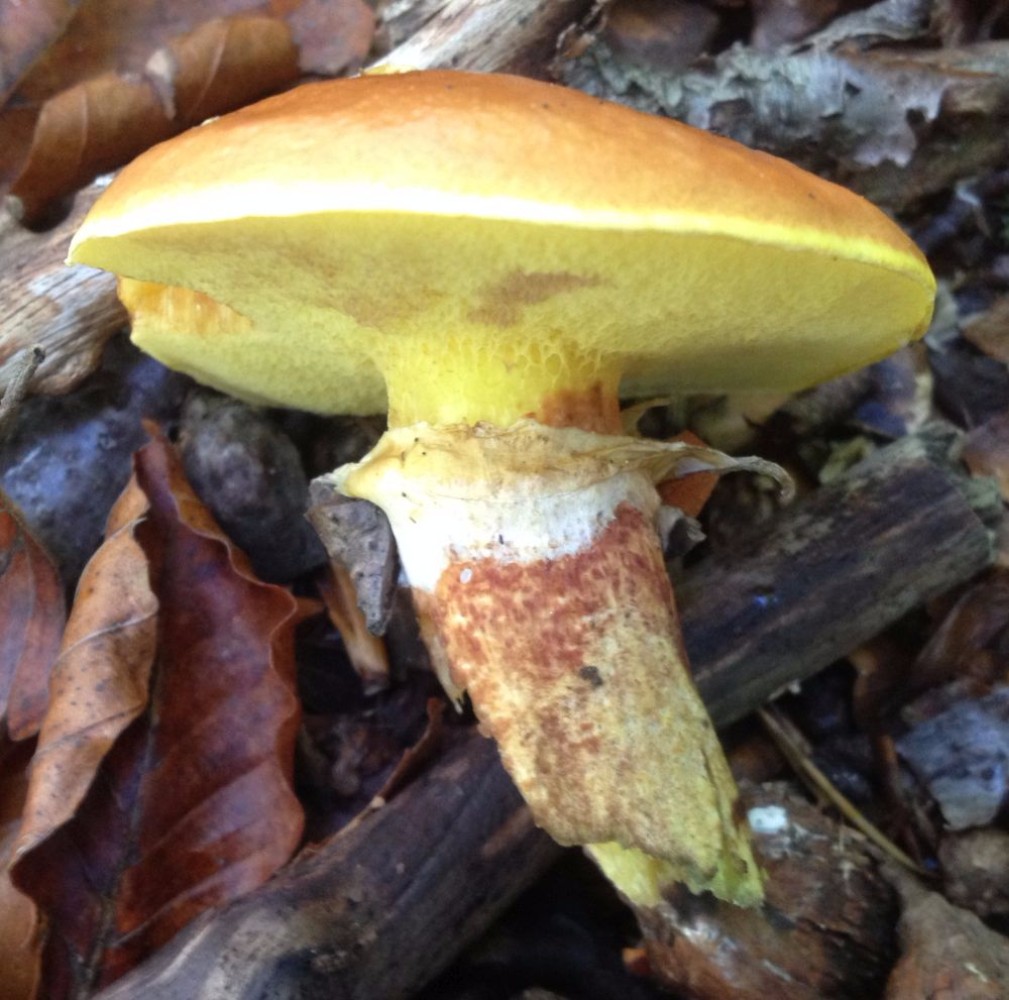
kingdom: Fungi
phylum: Basidiomycota
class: Agaricomycetes
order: Boletales
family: Suillaceae
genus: Suillus
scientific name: Suillus grevillei
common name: lærke-slimrørhat
